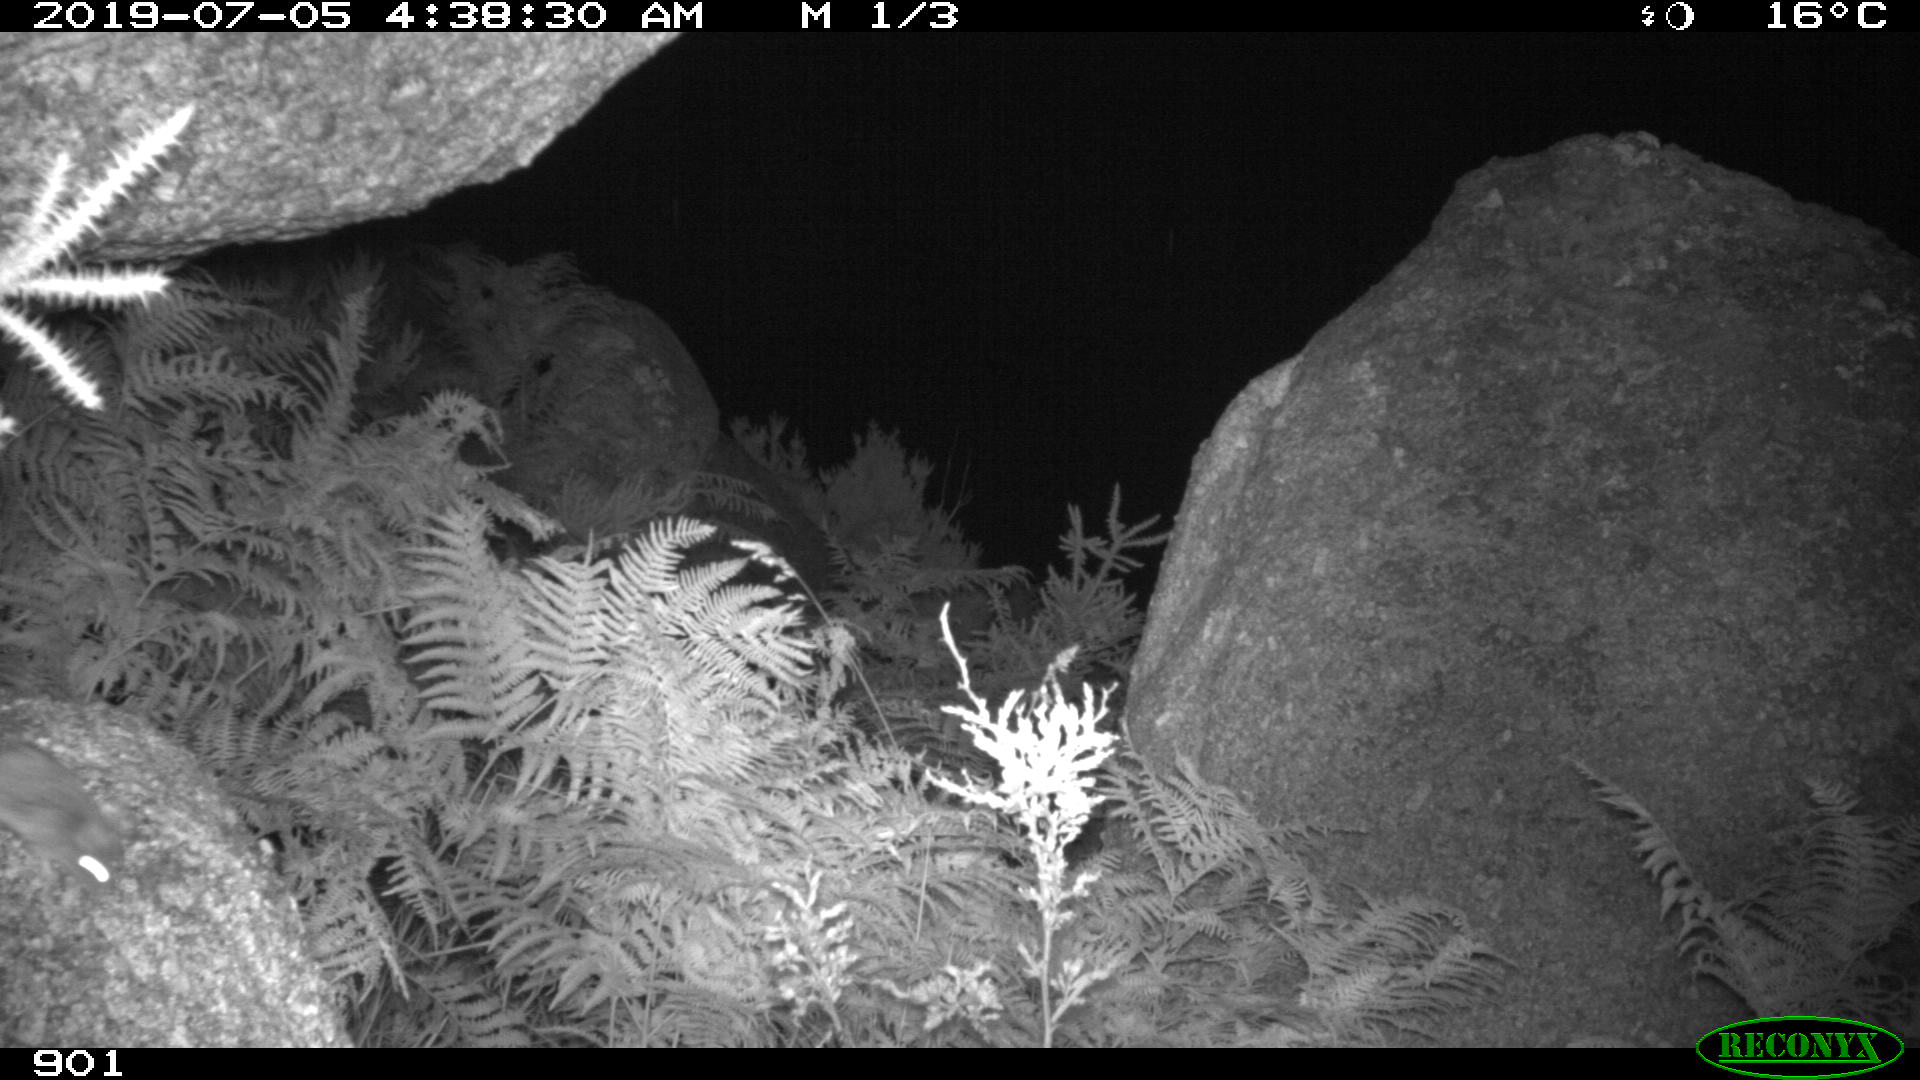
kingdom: Animalia
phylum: Chordata
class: Mammalia
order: Rodentia
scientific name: Rodentia
